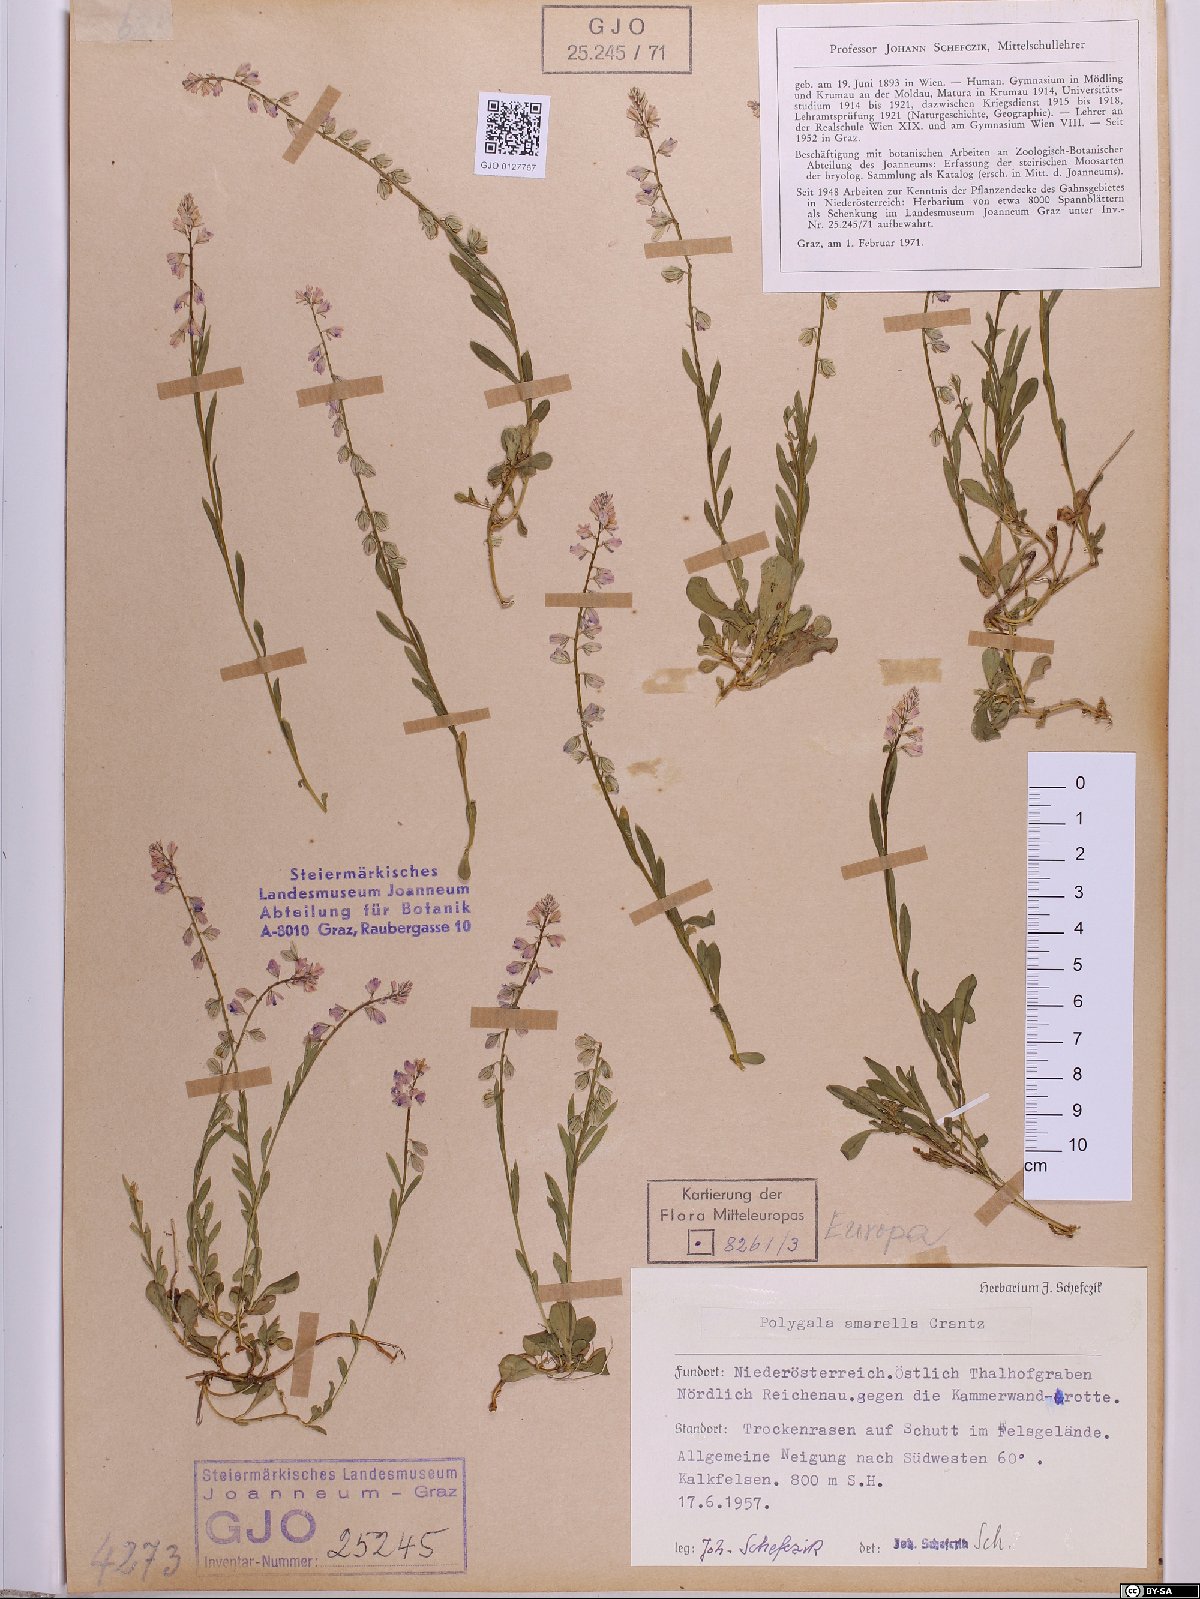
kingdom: Plantae
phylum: Tracheophyta
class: Magnoliopsida
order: Fabales
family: Polygalaceae
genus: Polygala
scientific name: Polygala amarella
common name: Dwarf milkwort
